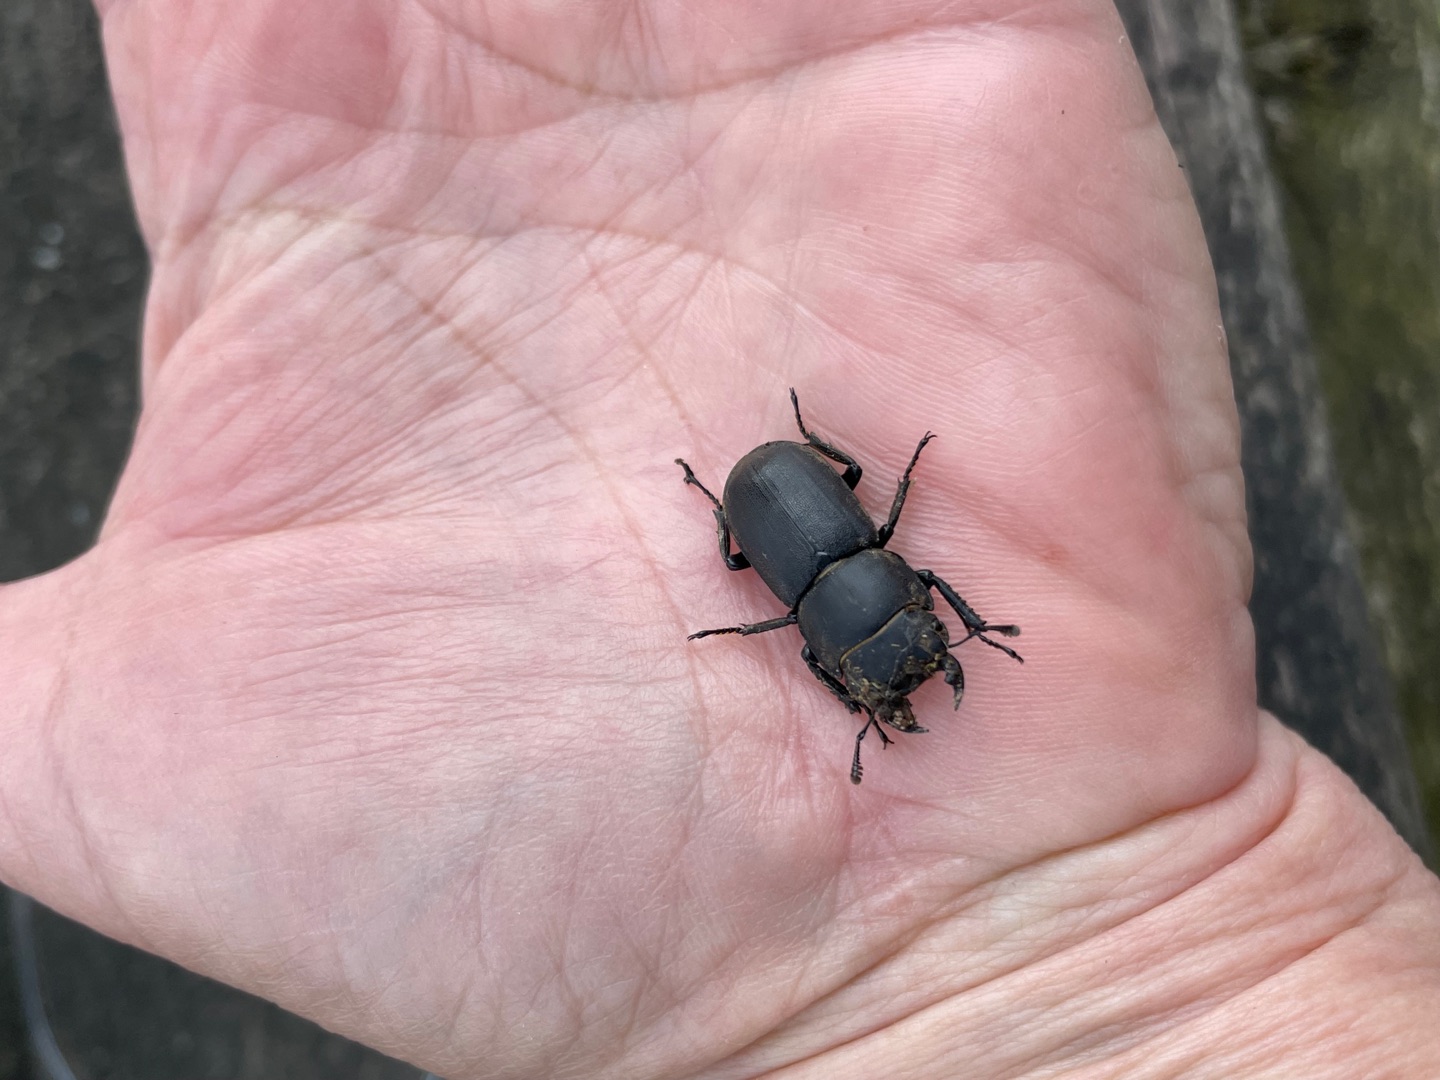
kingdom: Animalia
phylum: Arthropoda
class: Insecta
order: Coleoptera
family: Lucanidae
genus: Dorcus
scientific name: Dorcus parallelipipedus
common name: Bøghjort
